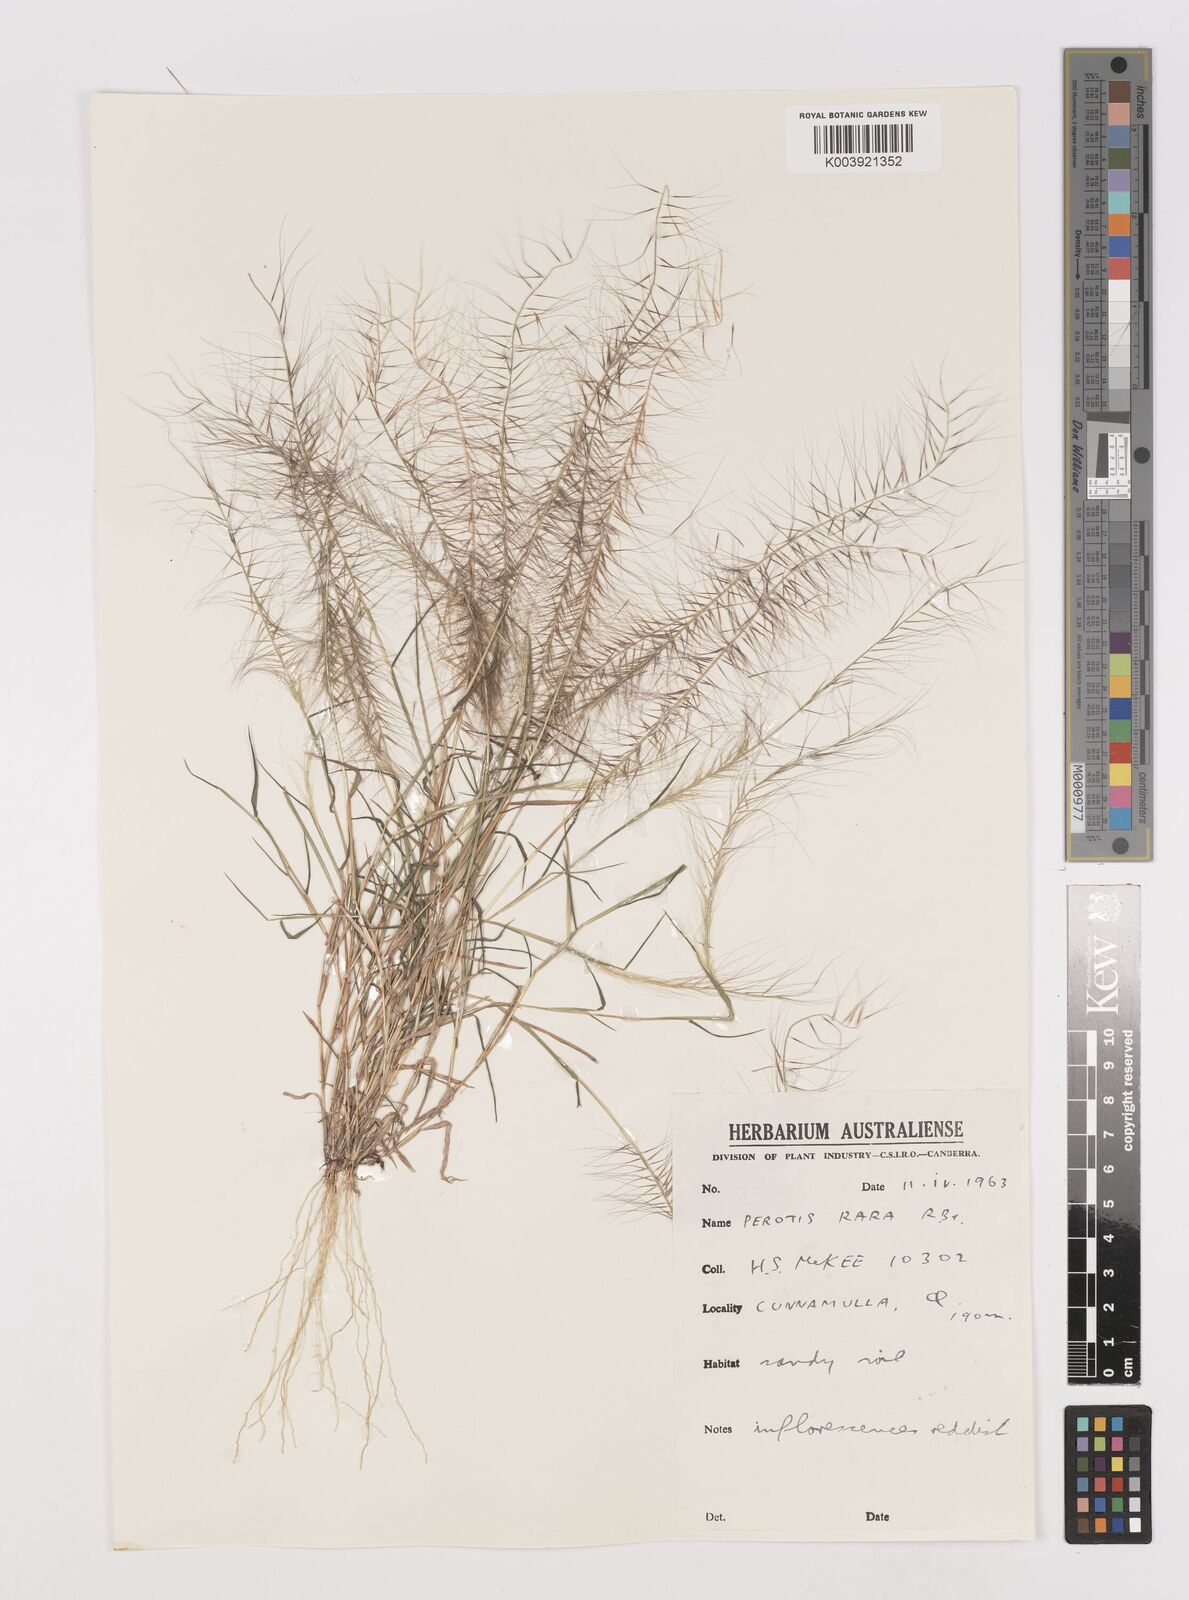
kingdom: Plantae
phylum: Tracheophyta
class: Liliopsida
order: Poales
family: Poaceae
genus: Perotis
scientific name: Perotis rara
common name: Comet grass
